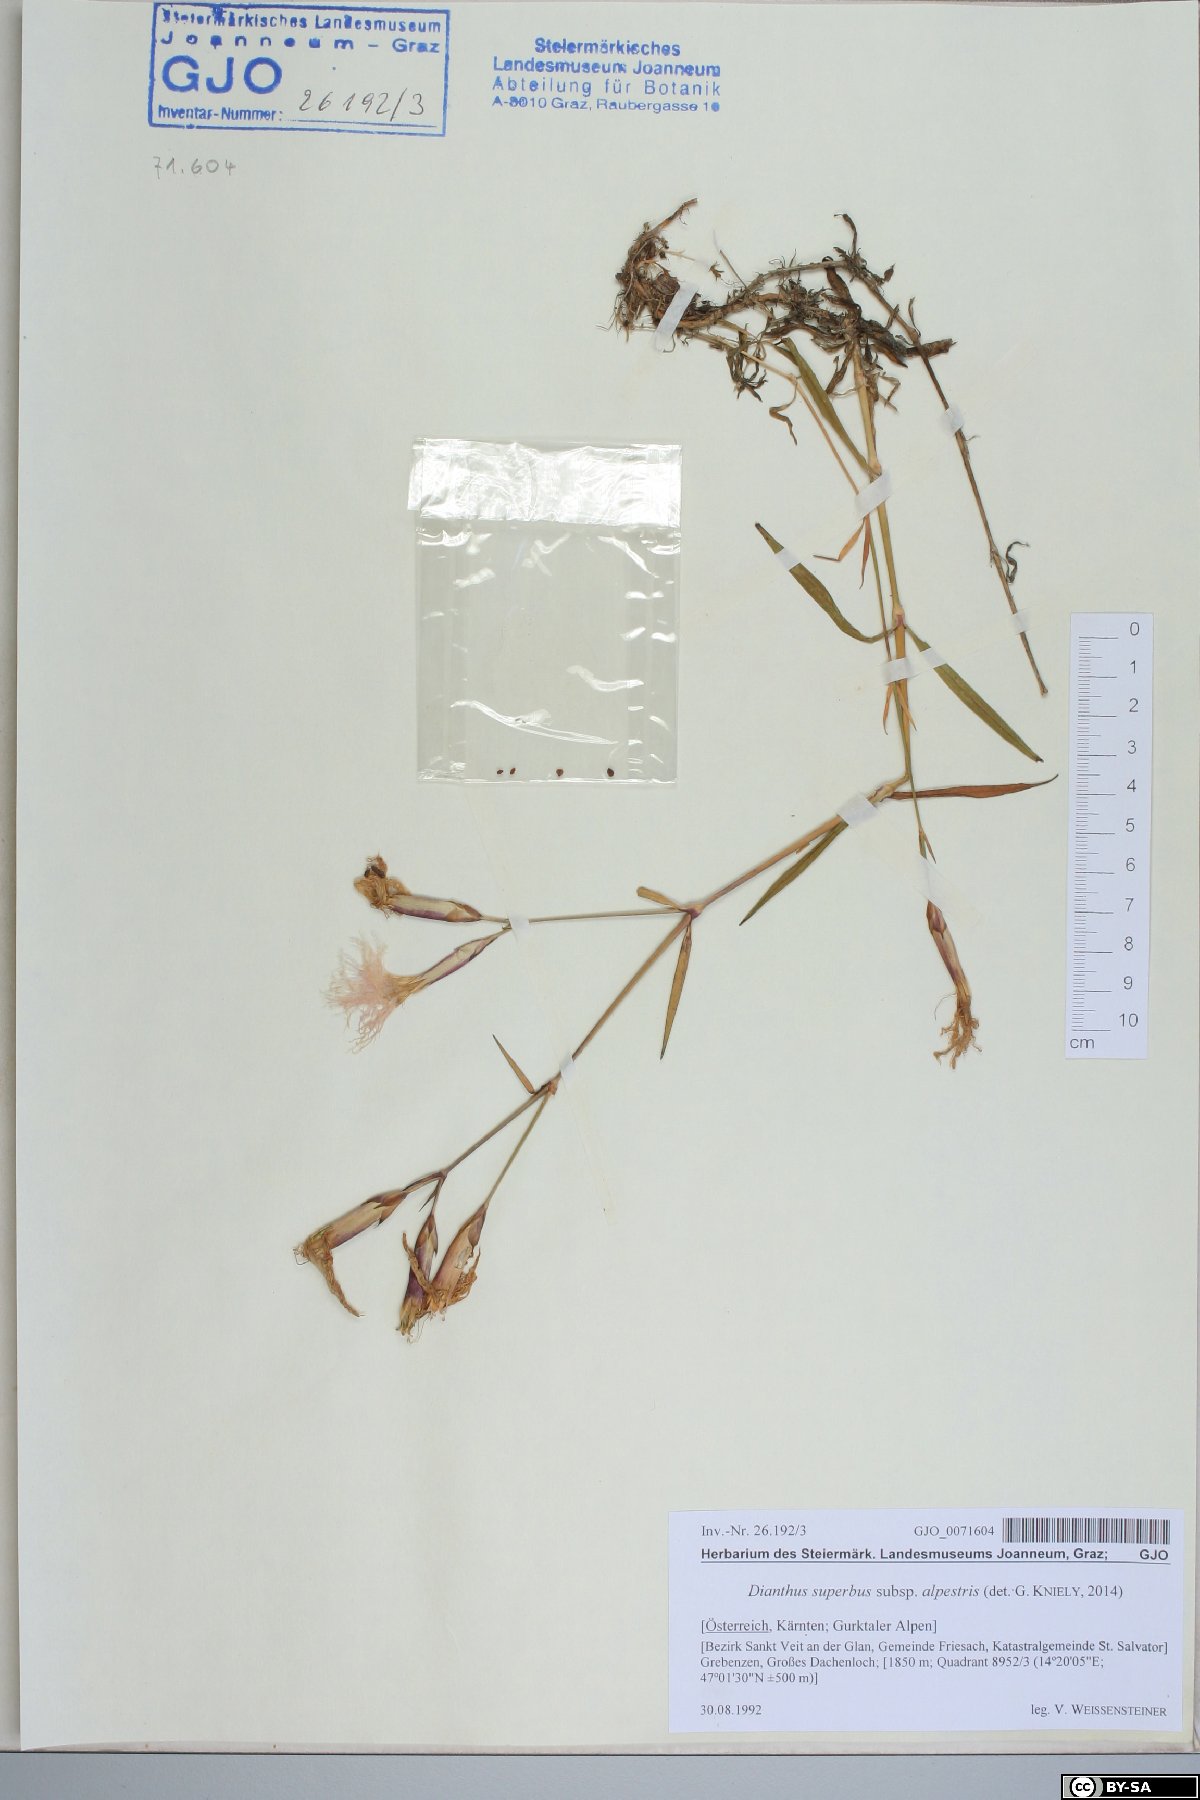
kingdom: Plantae
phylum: Tracheophyta
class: Magnoliopsida
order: Caryophyllales
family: Caryophyllaceae
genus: Dianthus
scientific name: Dianthus superbus
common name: Fringed pink
